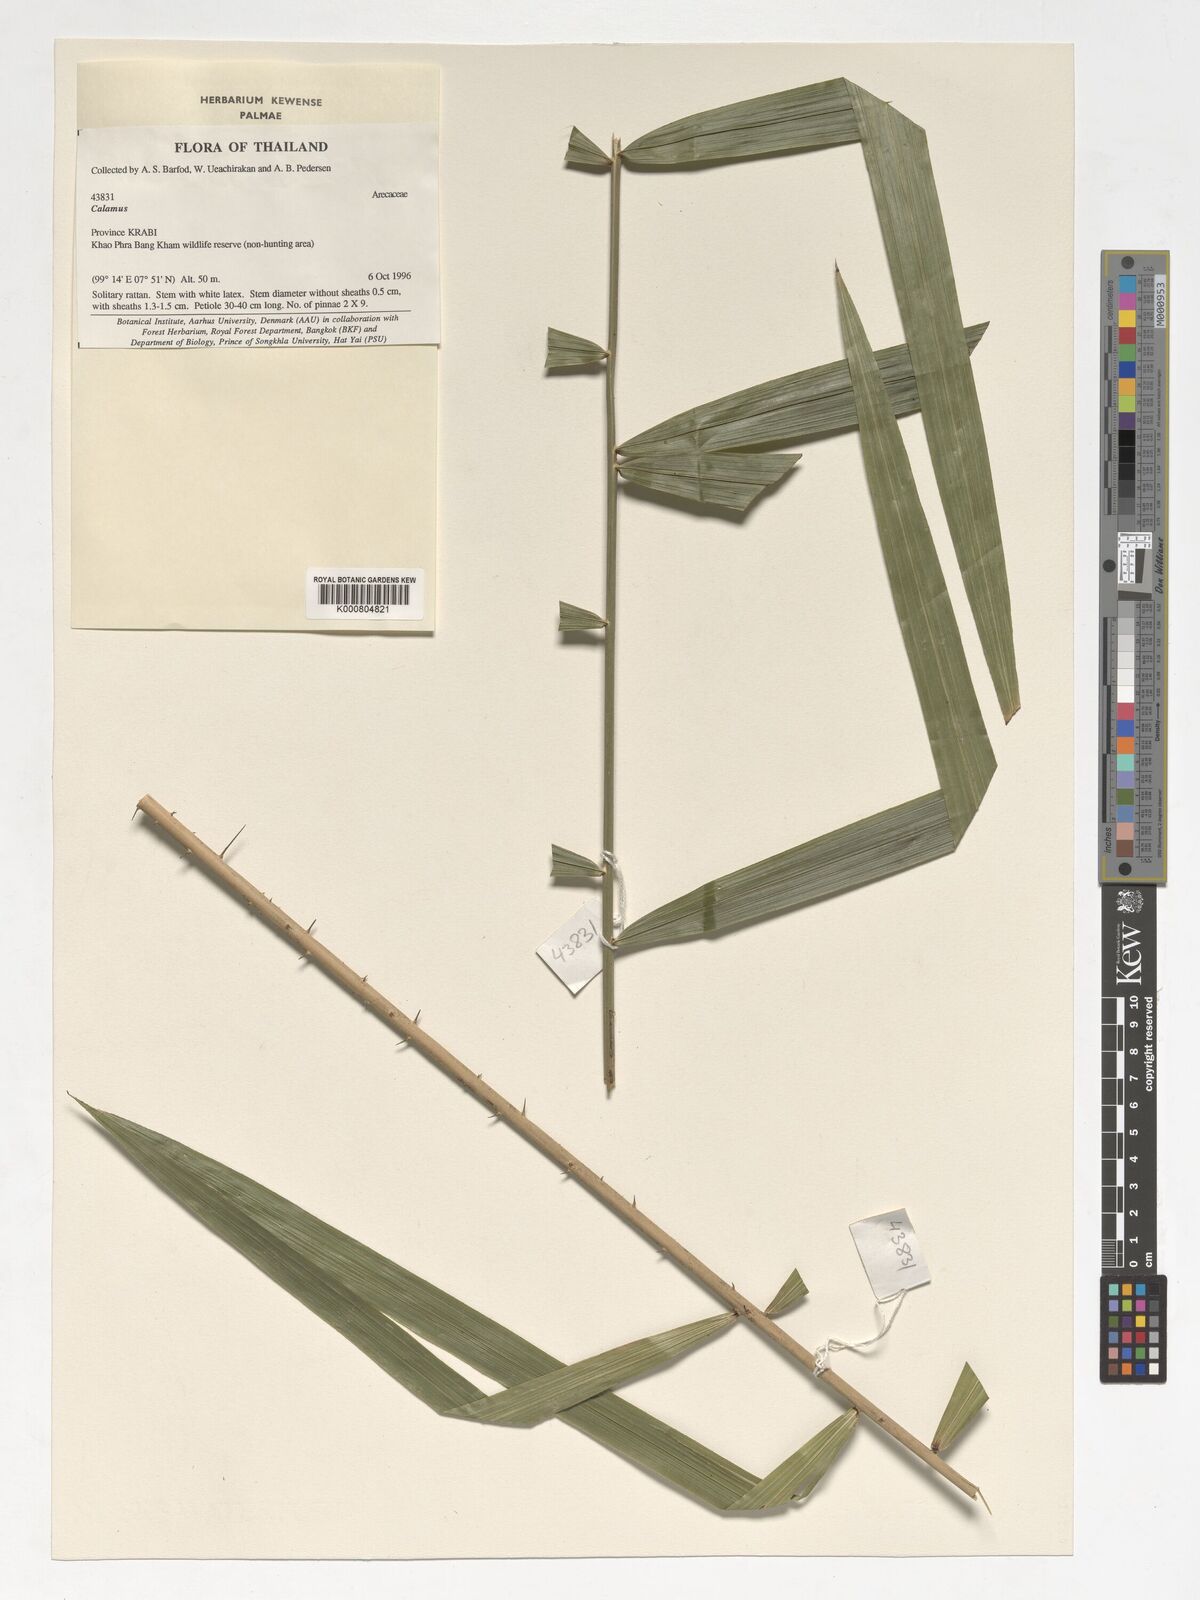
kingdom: Plantae
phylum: Tracheophyta
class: Liliopsida
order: Arecales
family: Arecaceae
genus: Calamus
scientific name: Calamus
